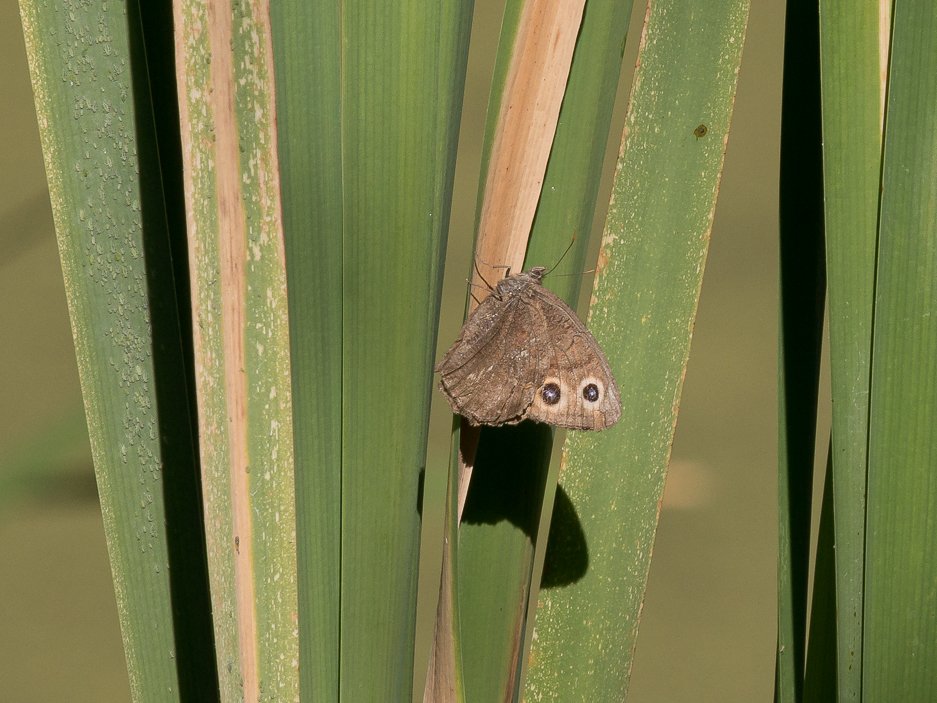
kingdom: Animalia
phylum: Arthropoda
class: Insecta
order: Lepidoptera
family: Nymphalidae
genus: Cercyonis
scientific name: Cercyonis pegala
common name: Common Wood-Nymph
